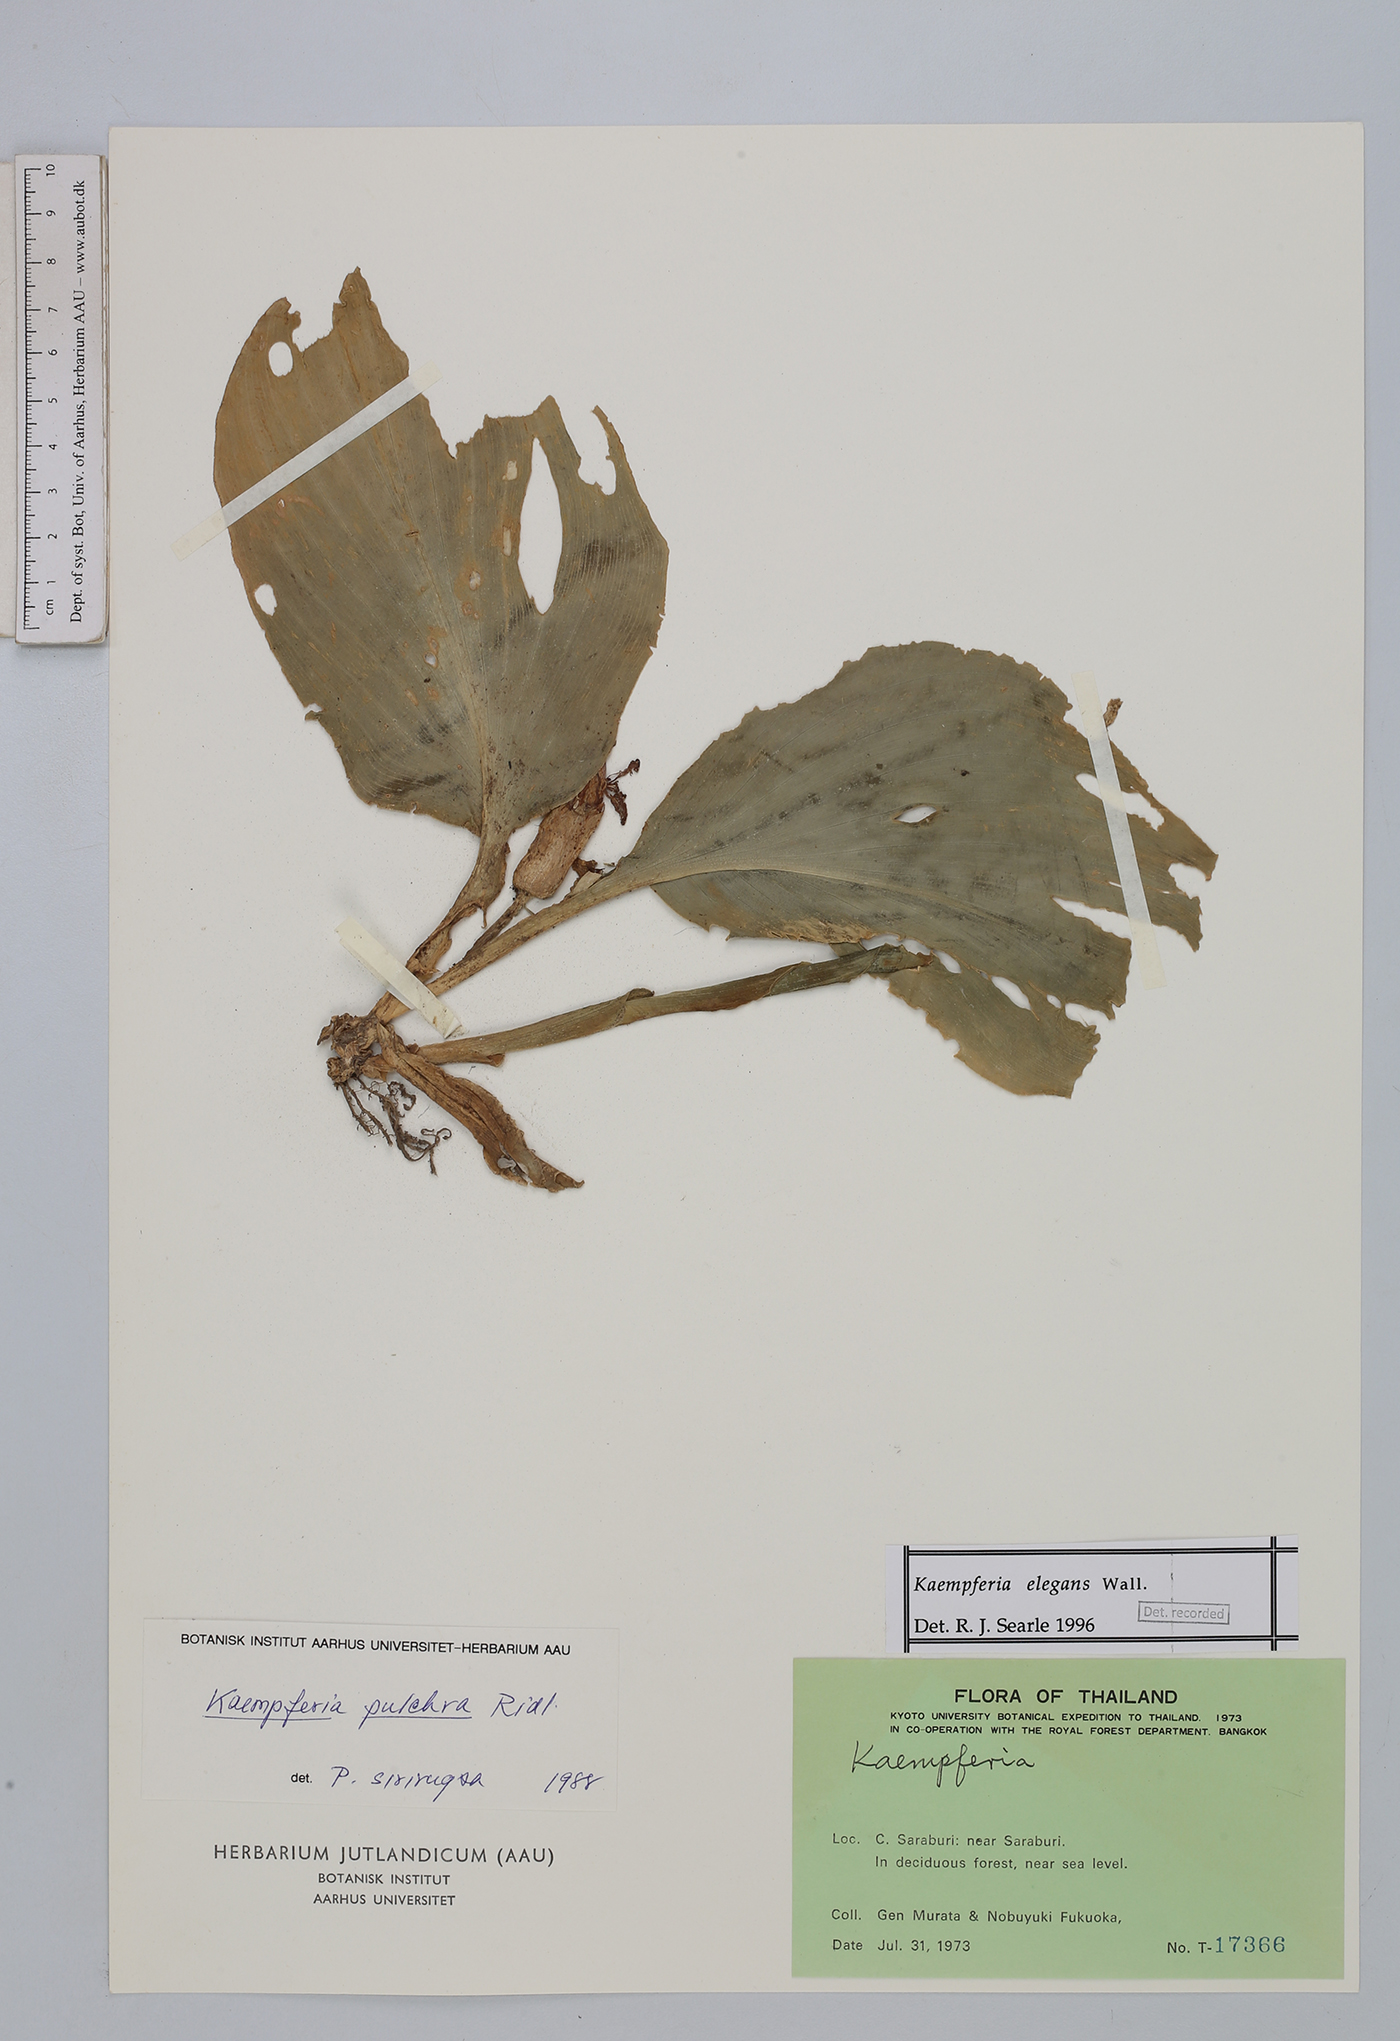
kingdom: Plantae
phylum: Tracheophyta
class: Liliopsida
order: Zingiberales
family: Zingiberaceae
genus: Kaempferia
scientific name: Kaempferia elegans
